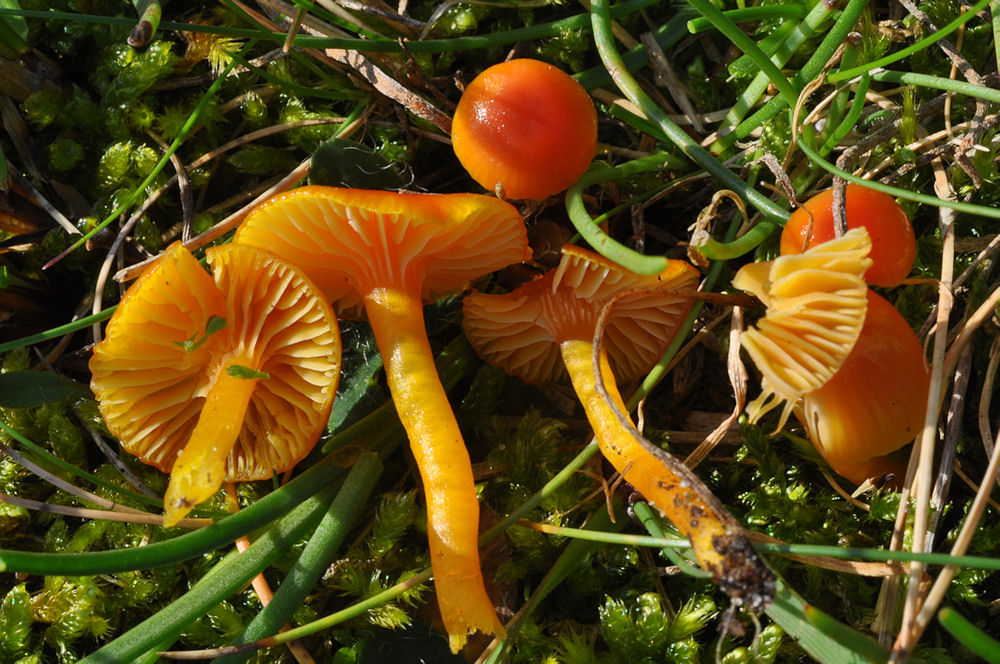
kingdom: Fungi
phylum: Basidiomycota
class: Agaricomycetes
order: Agaricales
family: Hygrophoraceae
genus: Hygrocybe
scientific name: Hygrocybe insipida
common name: liden vokshat
